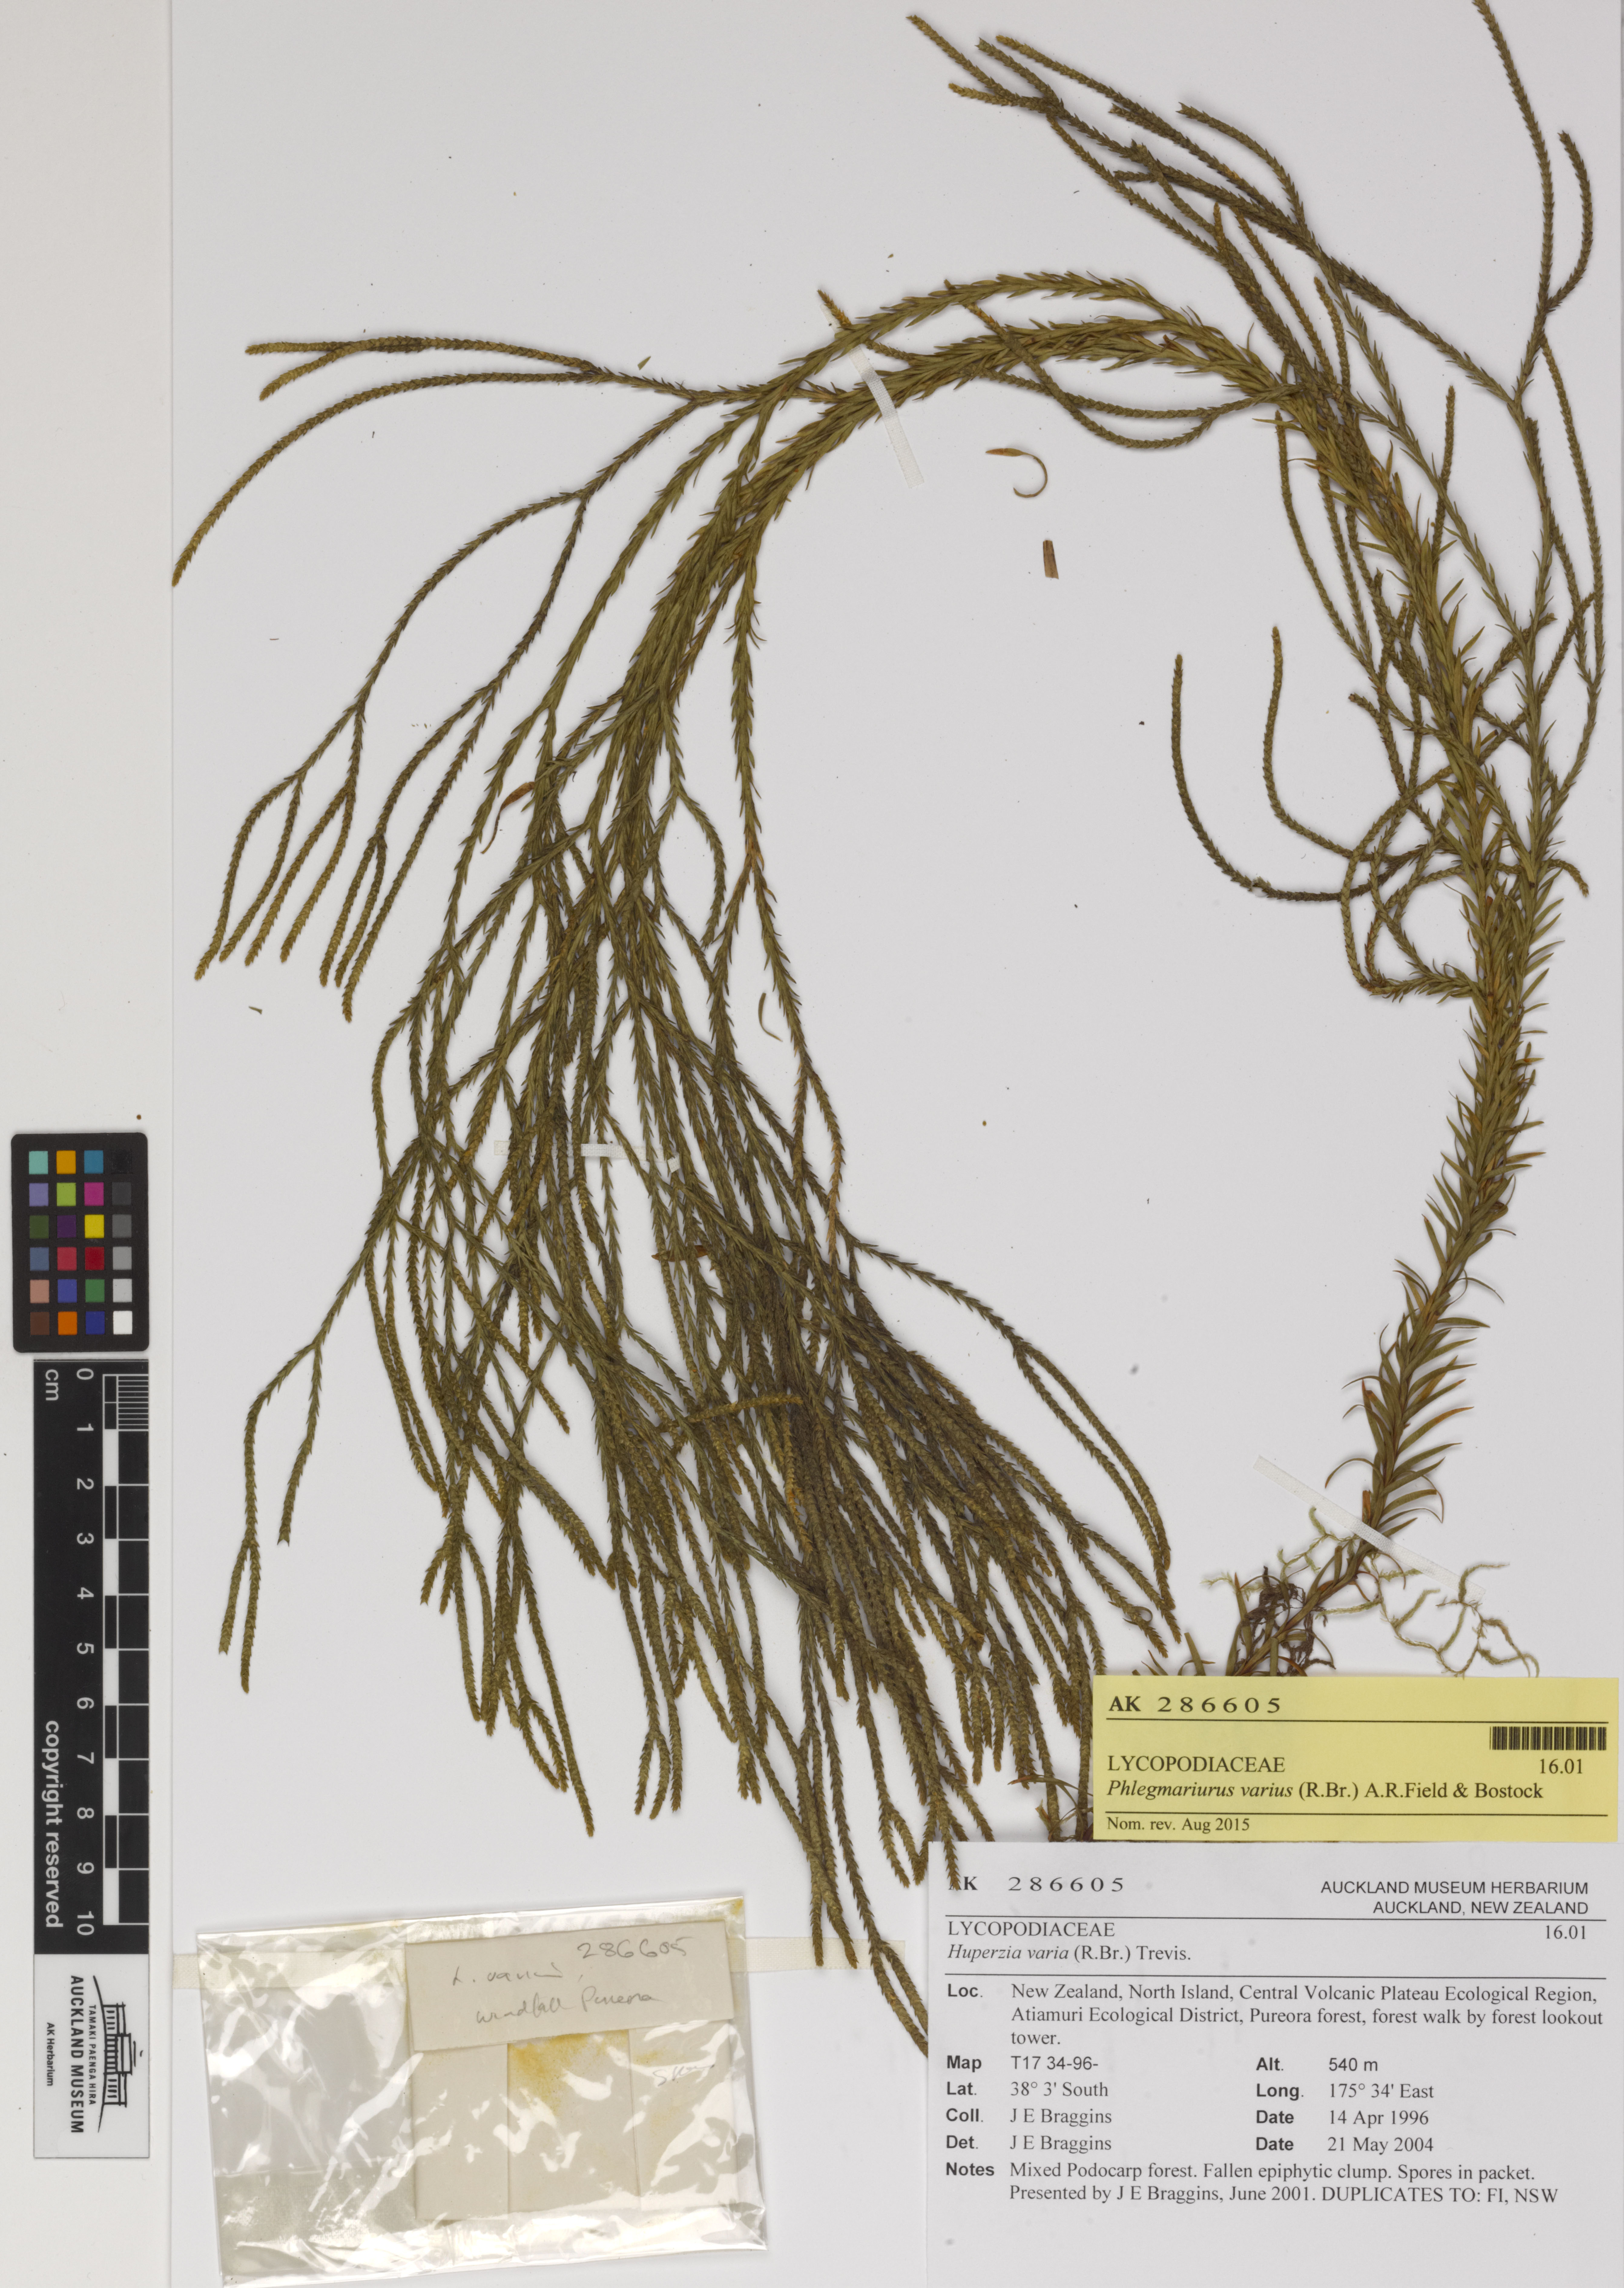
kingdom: Plantae
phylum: Tracheophyta
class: Lycopodiopsida
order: Lycopodiales
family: Lycopodiaceae
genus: Phlegmariurus
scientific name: Phlegmariurus billardierei
